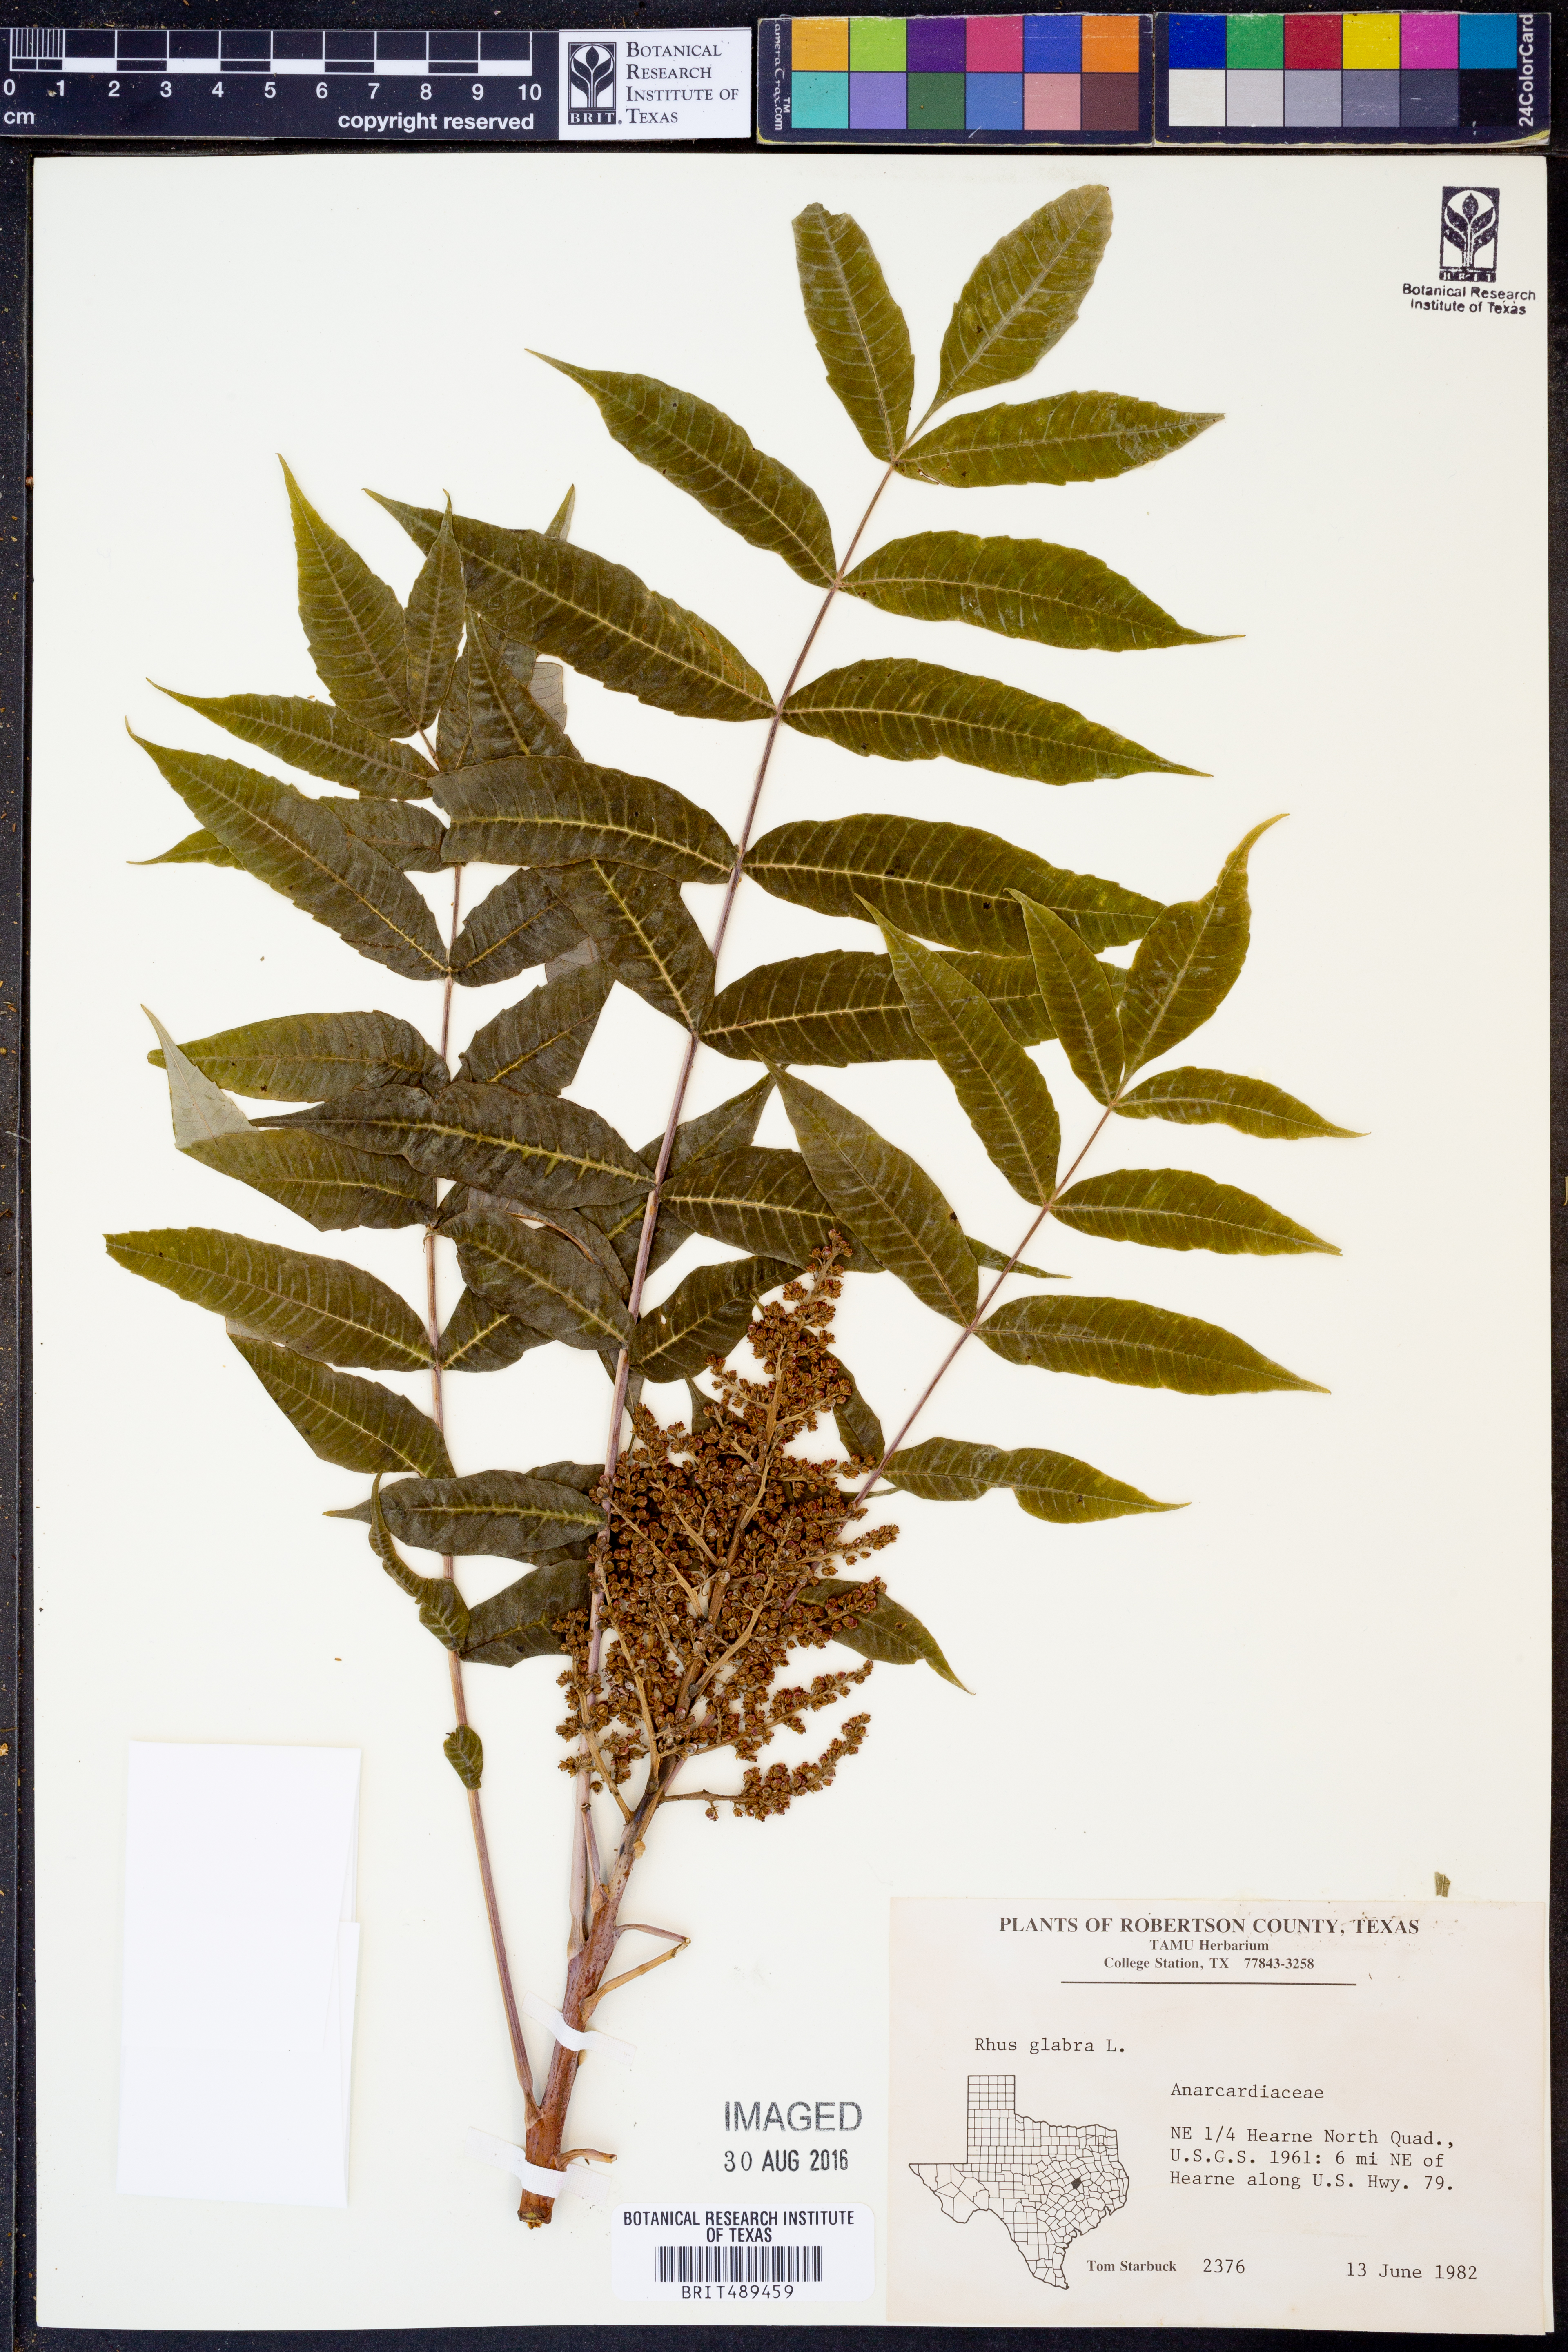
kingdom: Plantae
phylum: Tracheophyta
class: Magnoliopsida
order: Sapindales
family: Anacardiaceae
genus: Rhus
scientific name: Rhus glabra
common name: Scarlet sumac
